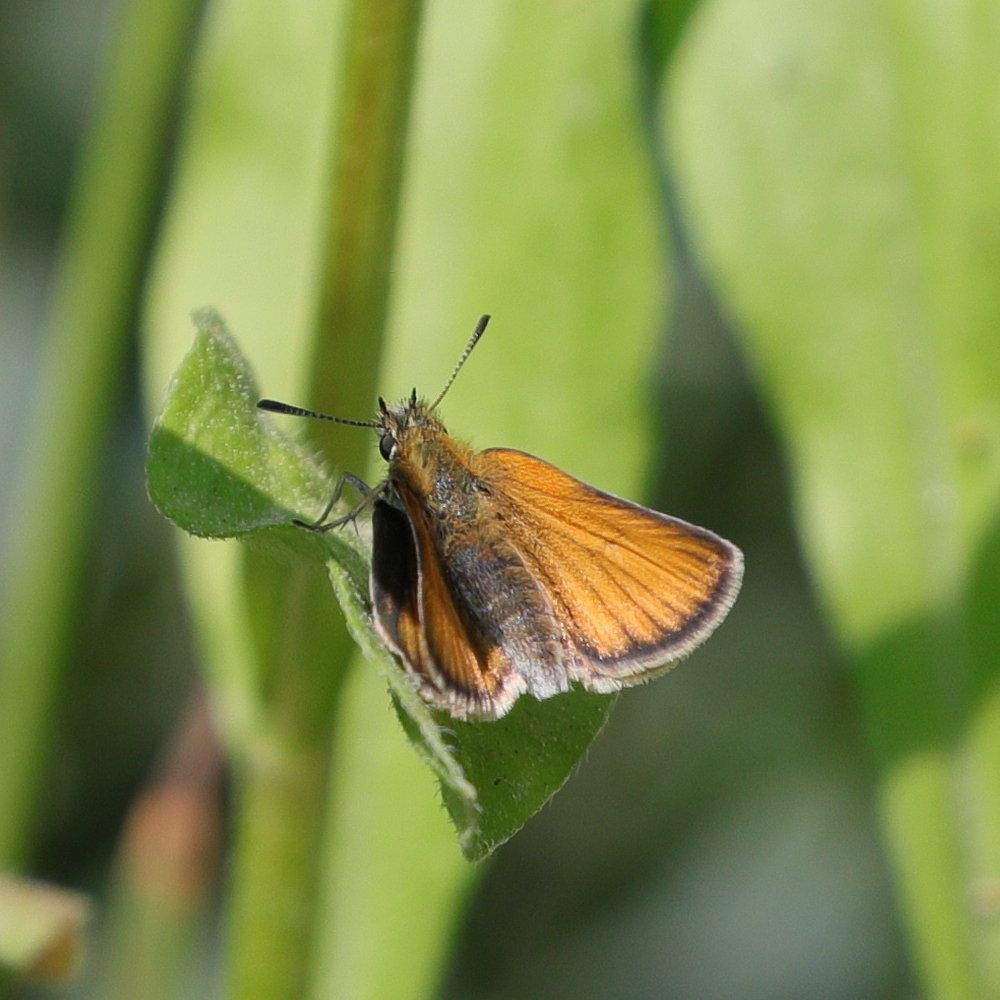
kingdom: Animalia
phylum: Arthropoda
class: Insecta
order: Lepidoptera
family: Hesperiidae
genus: Thymelicus
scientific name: Thymelicus lineola
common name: European Skipper
